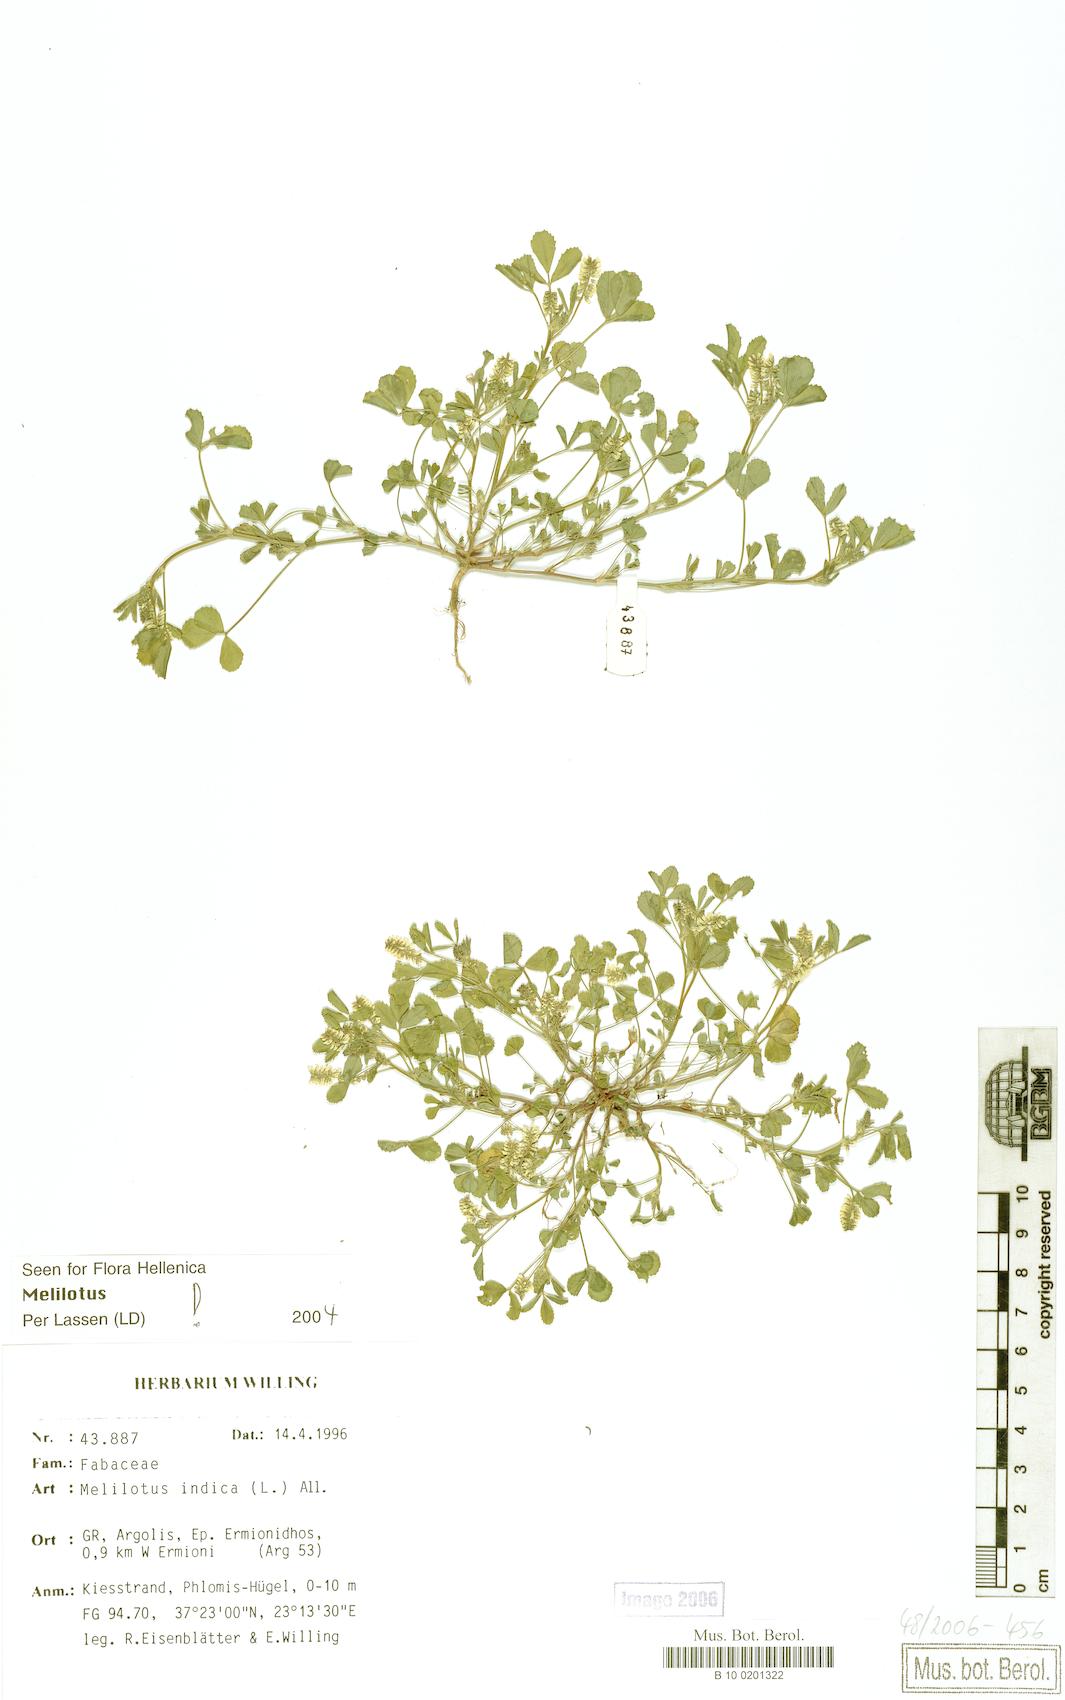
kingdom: Plantae
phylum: Tracheophyta
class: Magnoliopsida
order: Fabales
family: Fabaceae
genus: Melilotus
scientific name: Melilotus indicus
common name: Small melilot
